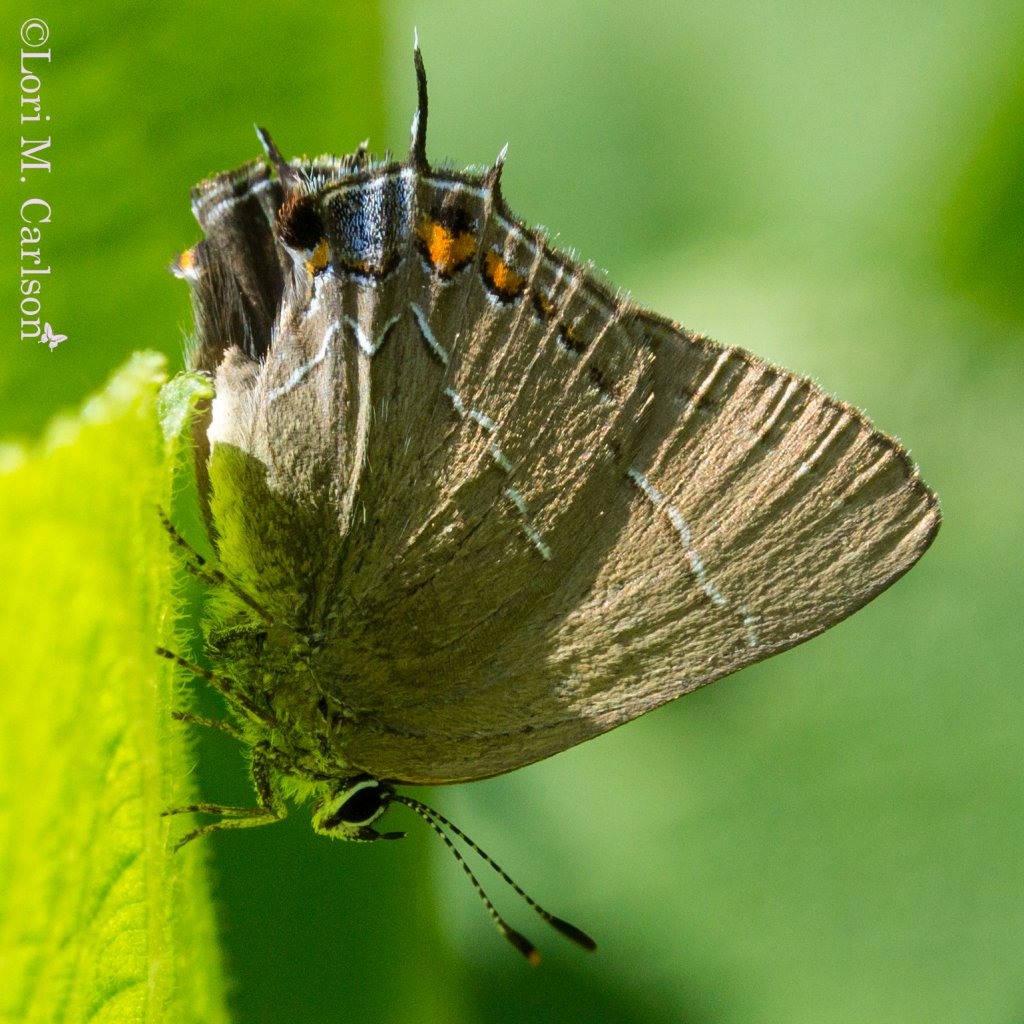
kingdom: Animalia
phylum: Arthropoda
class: Insecta
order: Lepidoptera
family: Lycaenidae
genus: Fixsenia
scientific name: Fixsenia favonius
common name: Oak Hairstreak
